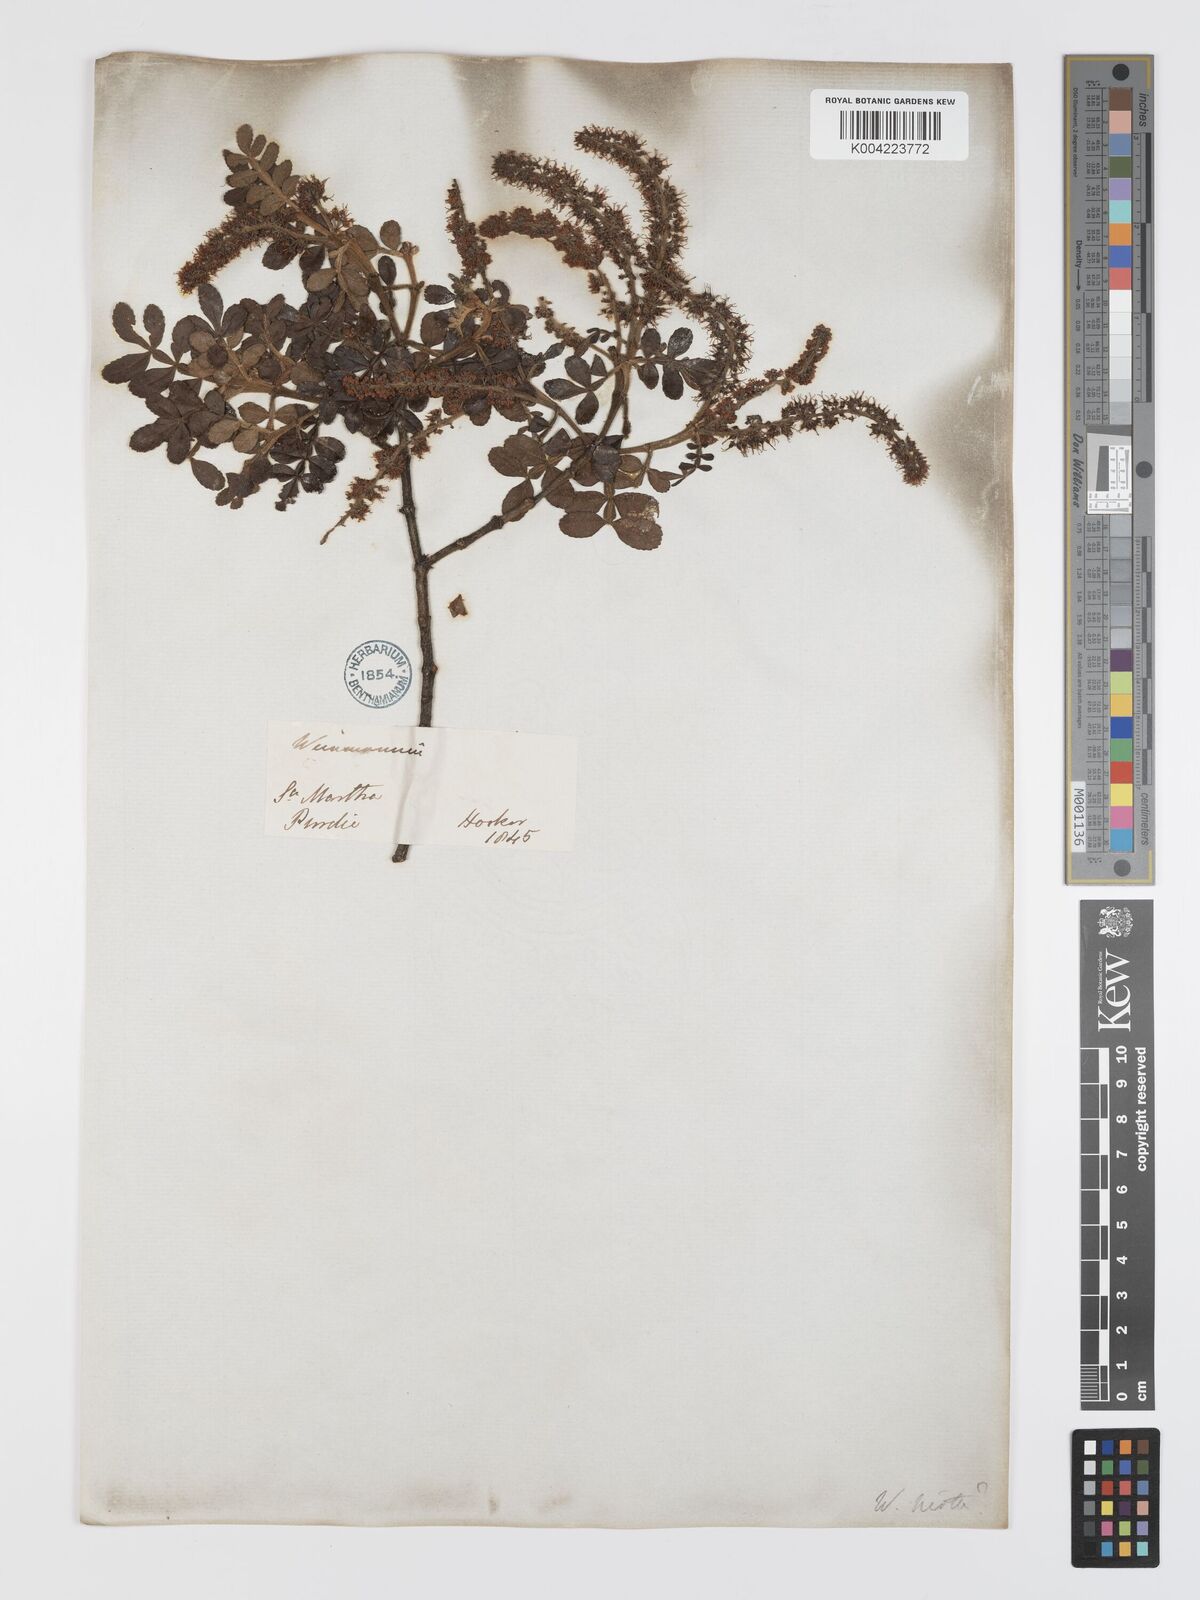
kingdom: Plantae
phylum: Tracheophyta
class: Magnoliopsida
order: Oxalidales
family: Cunoniaceae
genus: Weinmannia
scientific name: Weinmannia tomentosa
